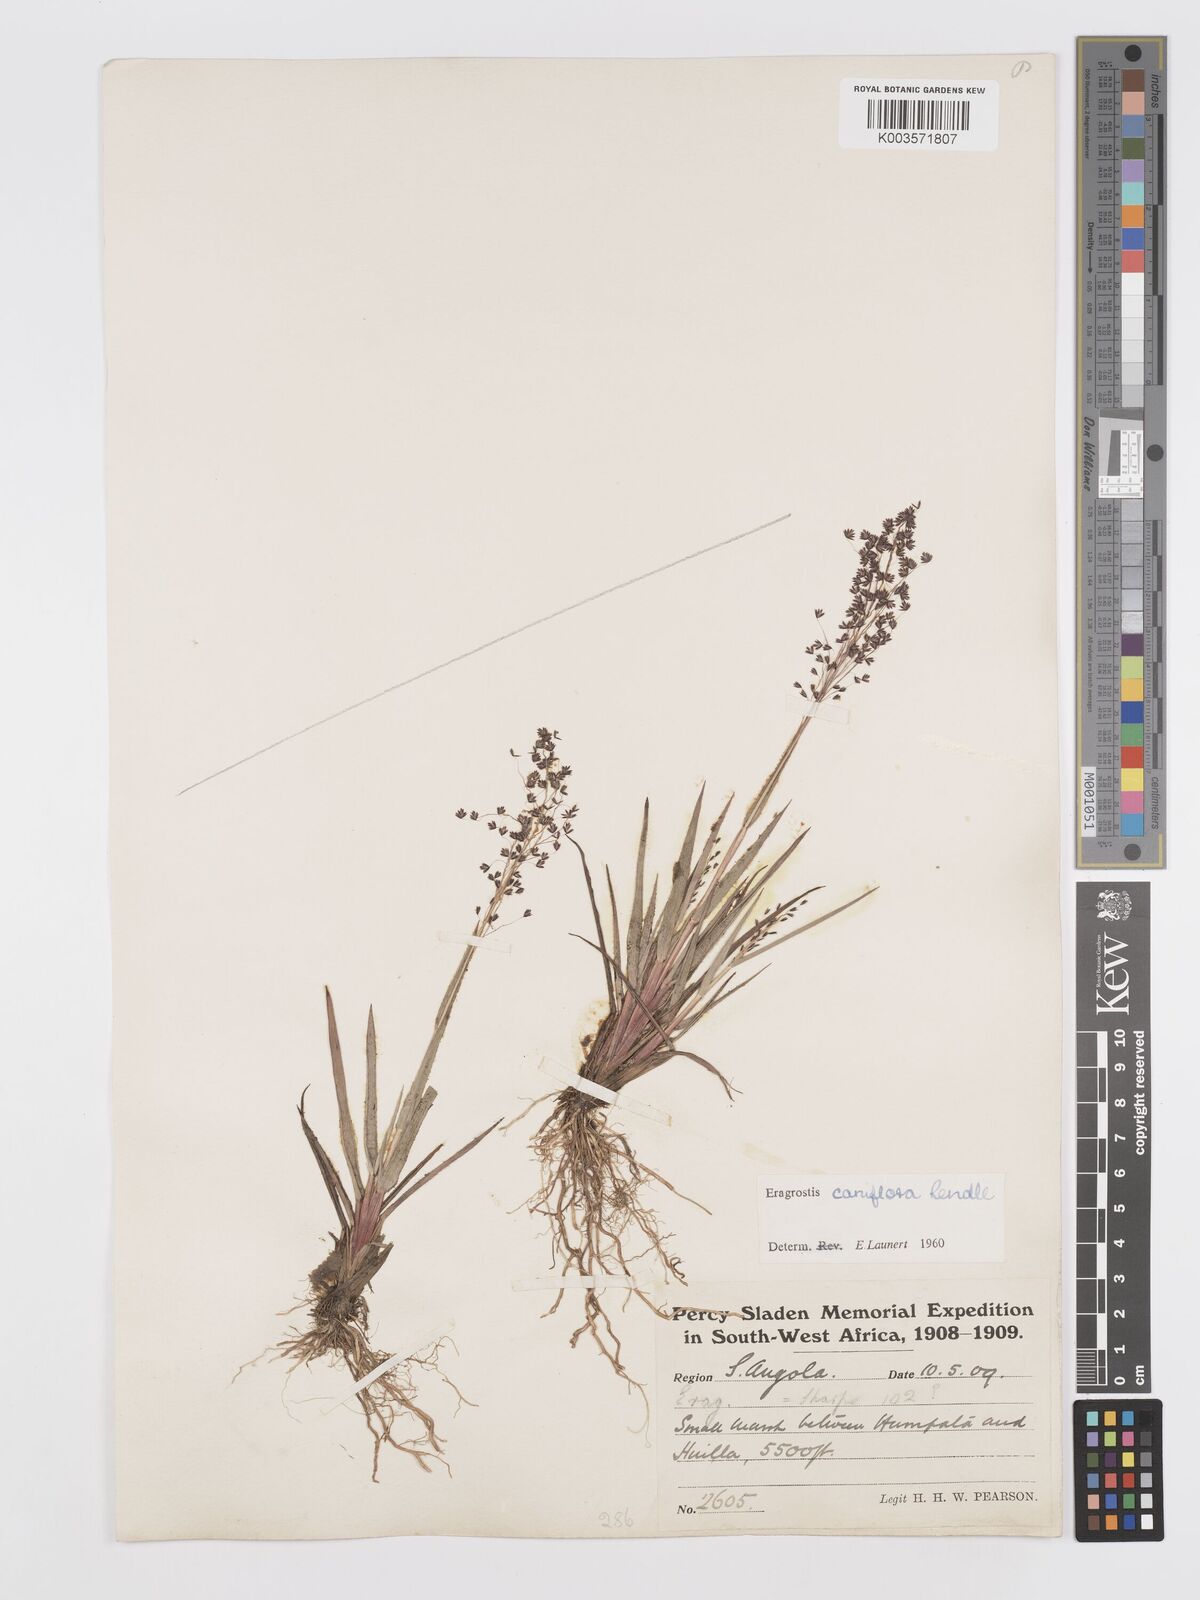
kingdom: Plantae
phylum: Tracheophyta
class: Liliopsida
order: Poales
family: Poaceae
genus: Eragrostis
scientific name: Eragrostis caniflora
